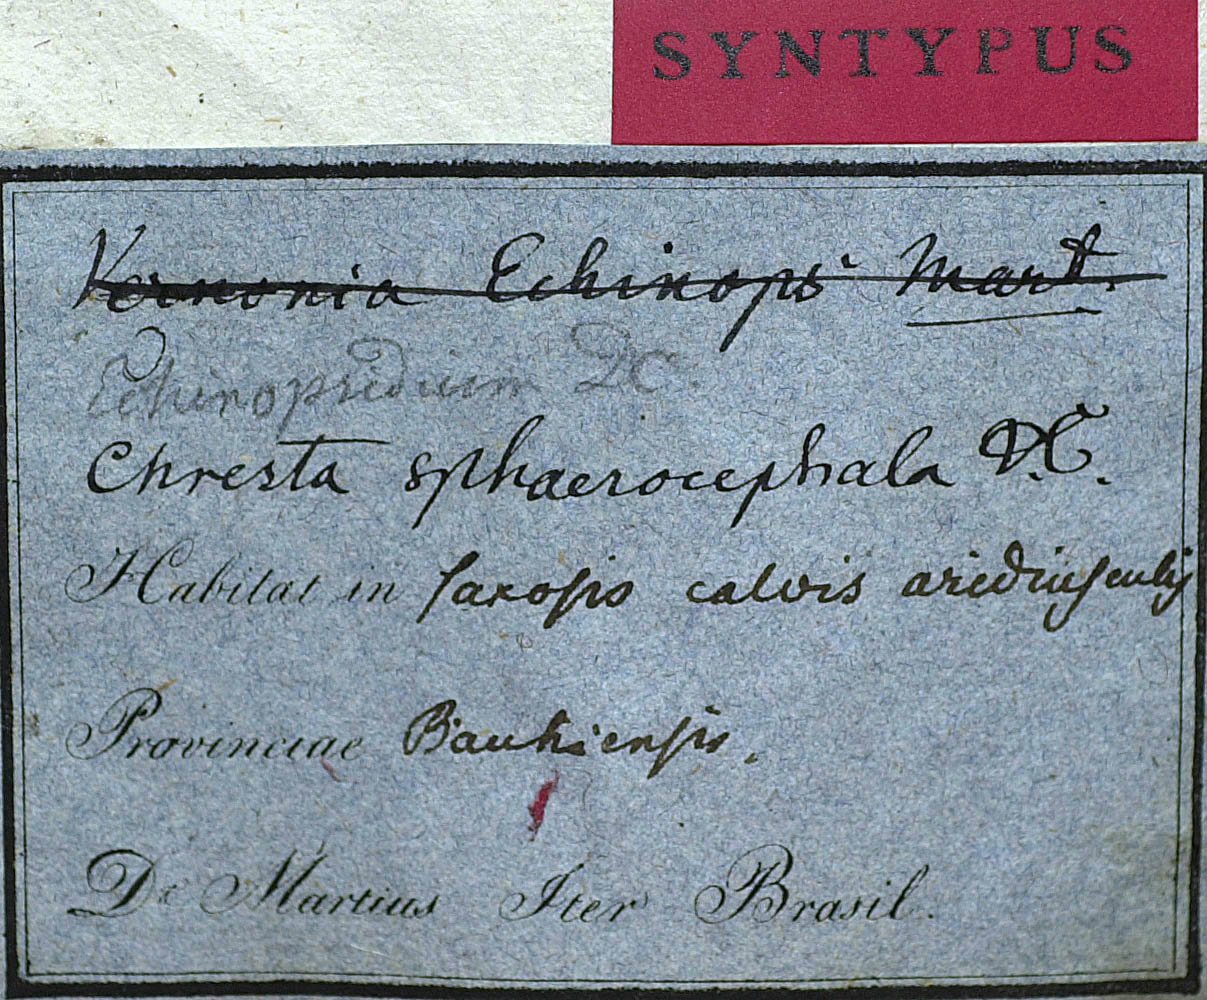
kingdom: Plantae
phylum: Tracheophyta
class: Magnoliopsida
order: Asterales
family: Asteraceae
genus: Chresta
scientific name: Chresta sphaerocephala
